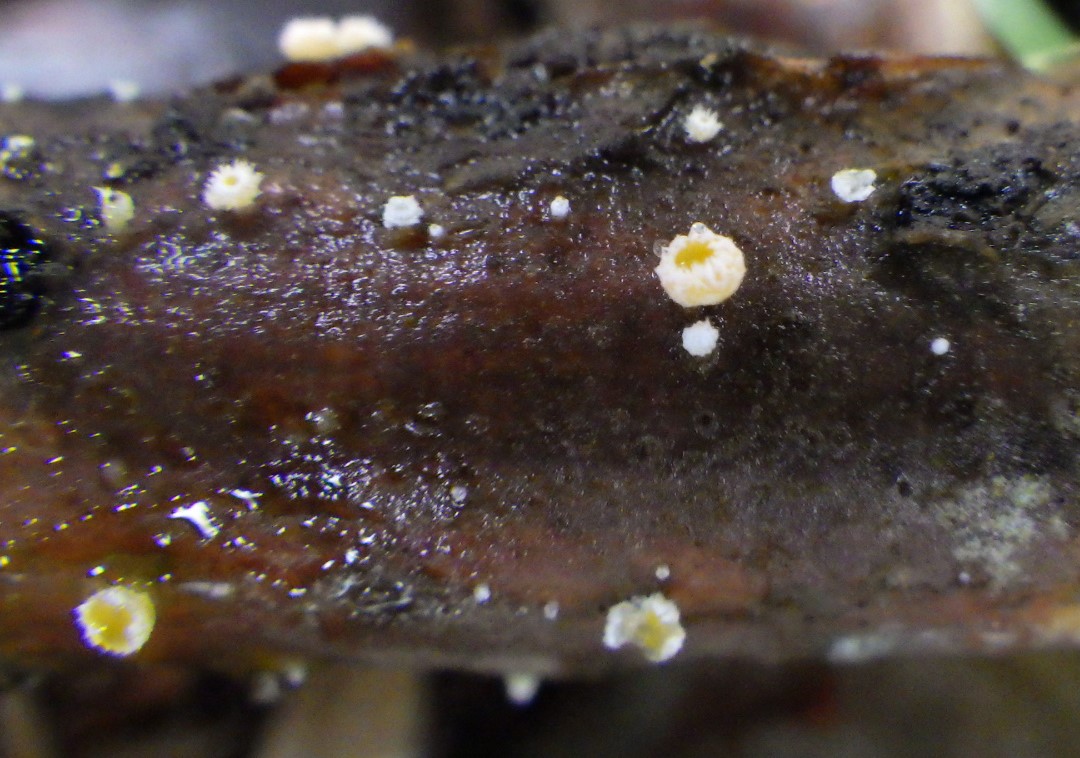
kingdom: Fungi
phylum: Ascomycota
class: Leotiomycetes
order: Helotiales
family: Lachnaceae
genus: Capitotricha
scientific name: Capitotricha bicolor
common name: prægtig frynseskive
